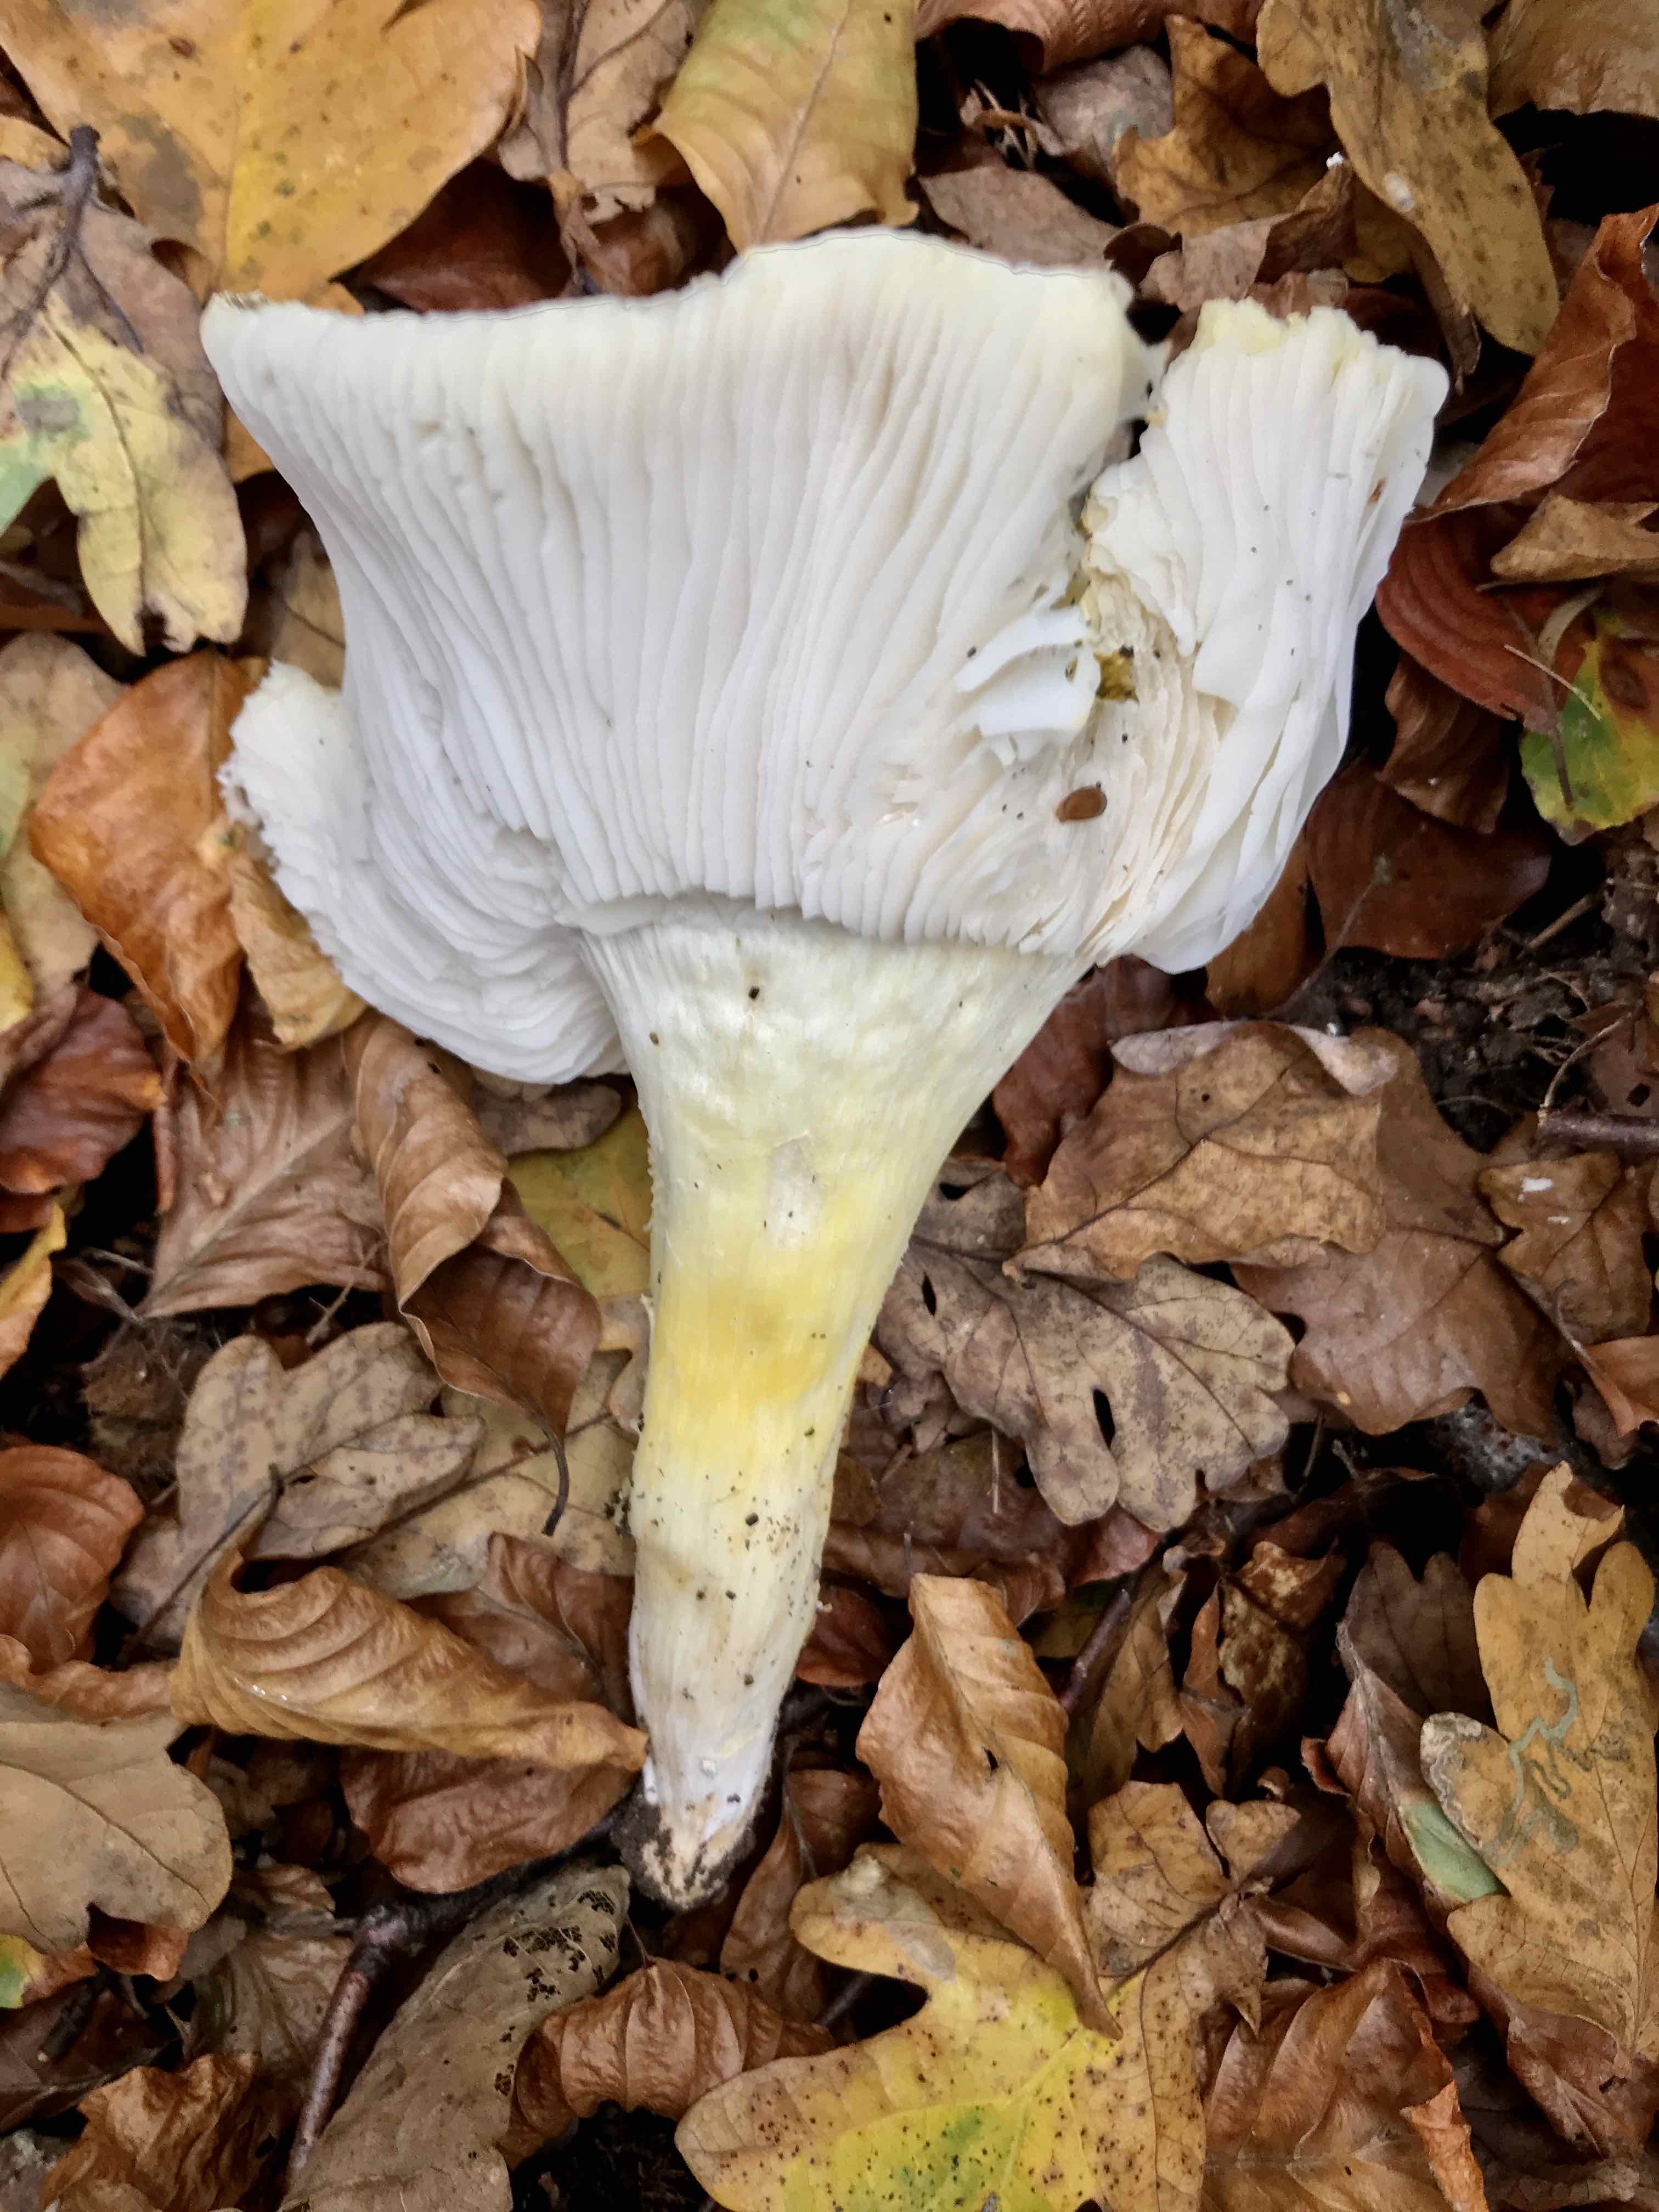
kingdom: Fungi
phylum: Basidiomycota
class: Agaricomycetes
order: Agaricales
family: Tricholomataceae
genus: Tricholoma
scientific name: Tricholoma sejunctum
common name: grøngul ridderhat
